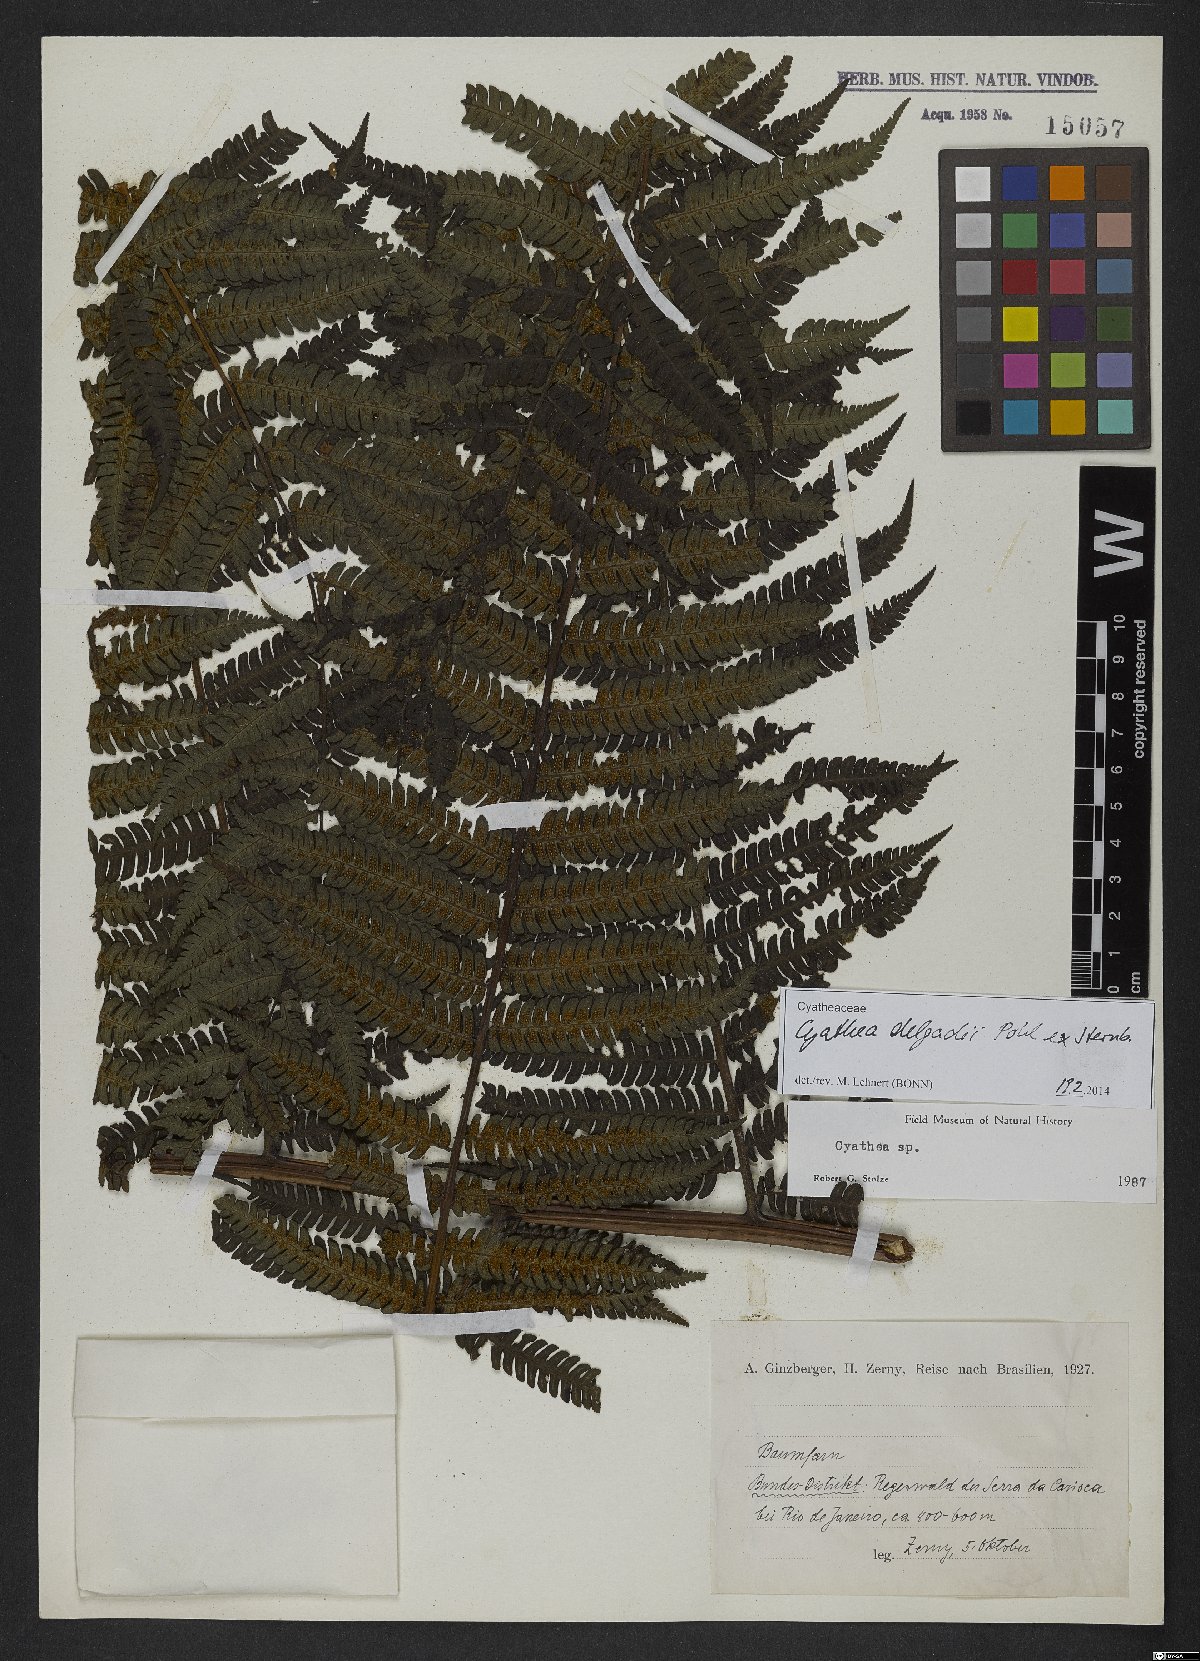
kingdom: Plantae
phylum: Tracheophyta
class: Polypodiopsida
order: Cyatheales
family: Cyatheaceae
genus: Cyathea
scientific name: Cyathea delgadii
